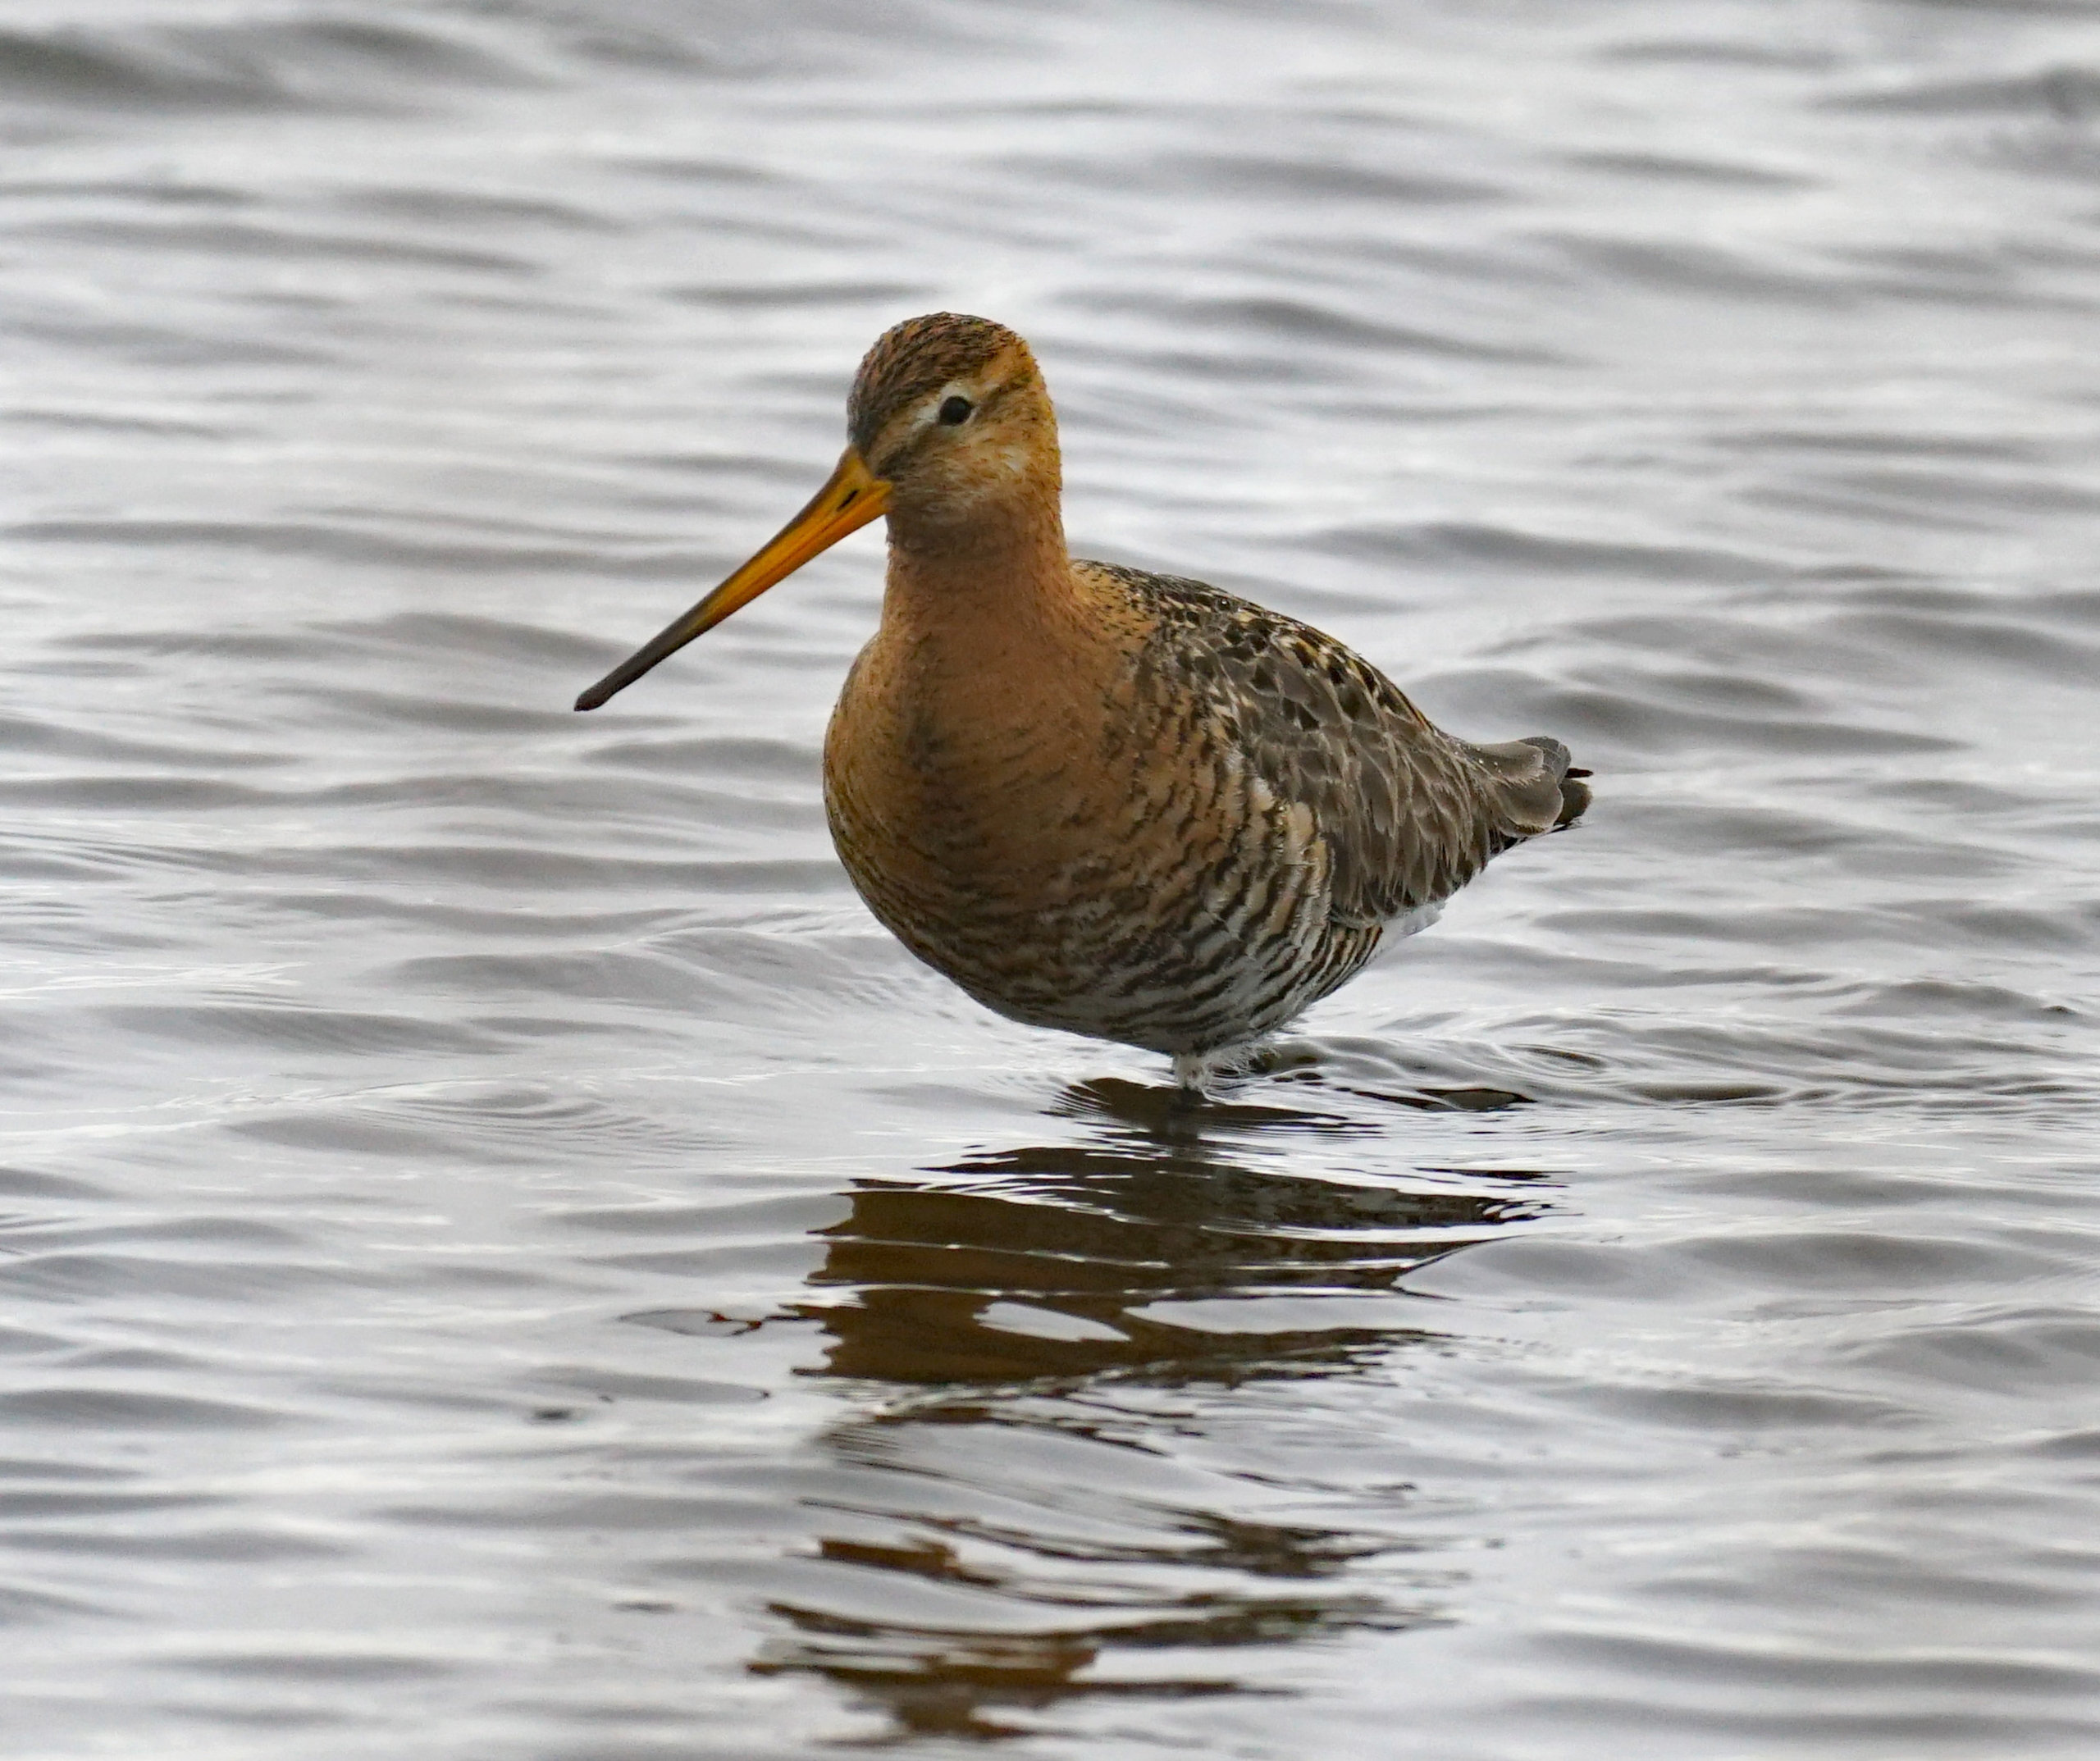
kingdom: Animalia
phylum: Chordata
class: Aves
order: Charadriiformes
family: Scolopacidae
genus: Limosa
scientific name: Limosa limosa
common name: Stor kobbersneppe
